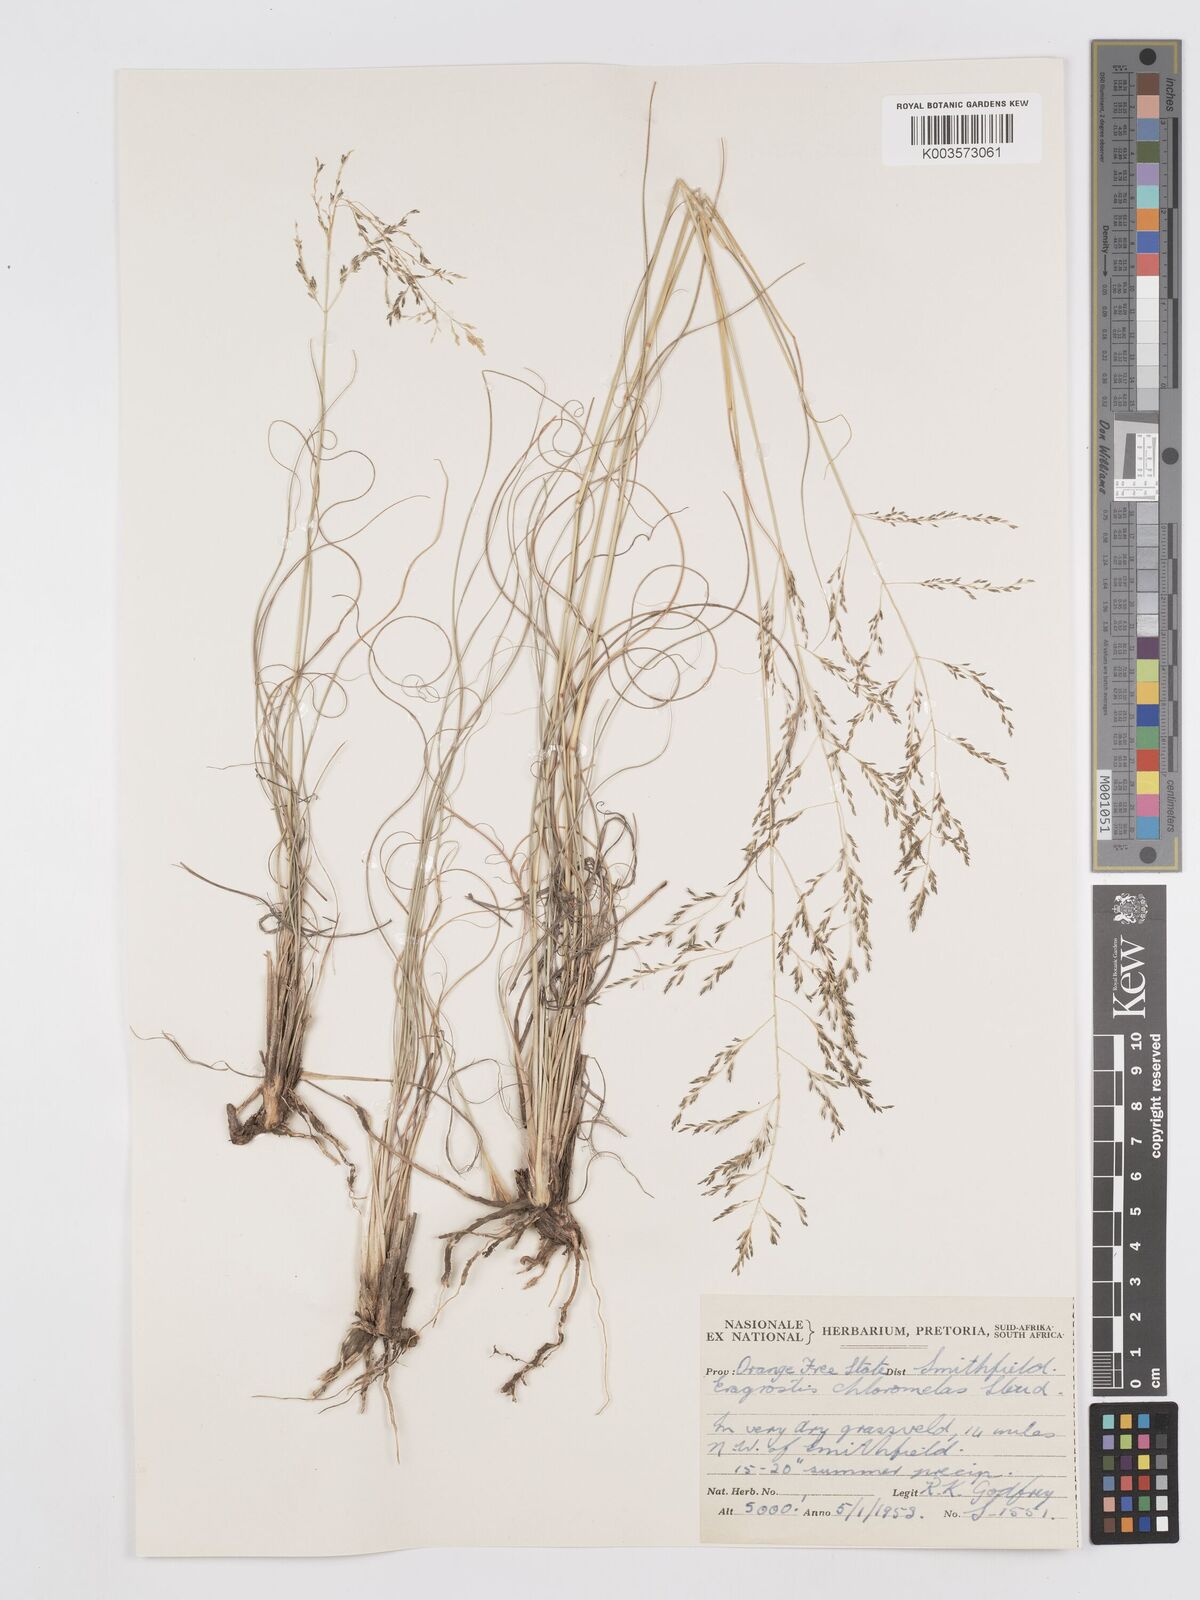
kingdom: Plantae
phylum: Tracheophyta
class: Liliopsida
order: Poales
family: Poaceae
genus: Eragrostis
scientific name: Eragrostis curvula
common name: African love-grass
